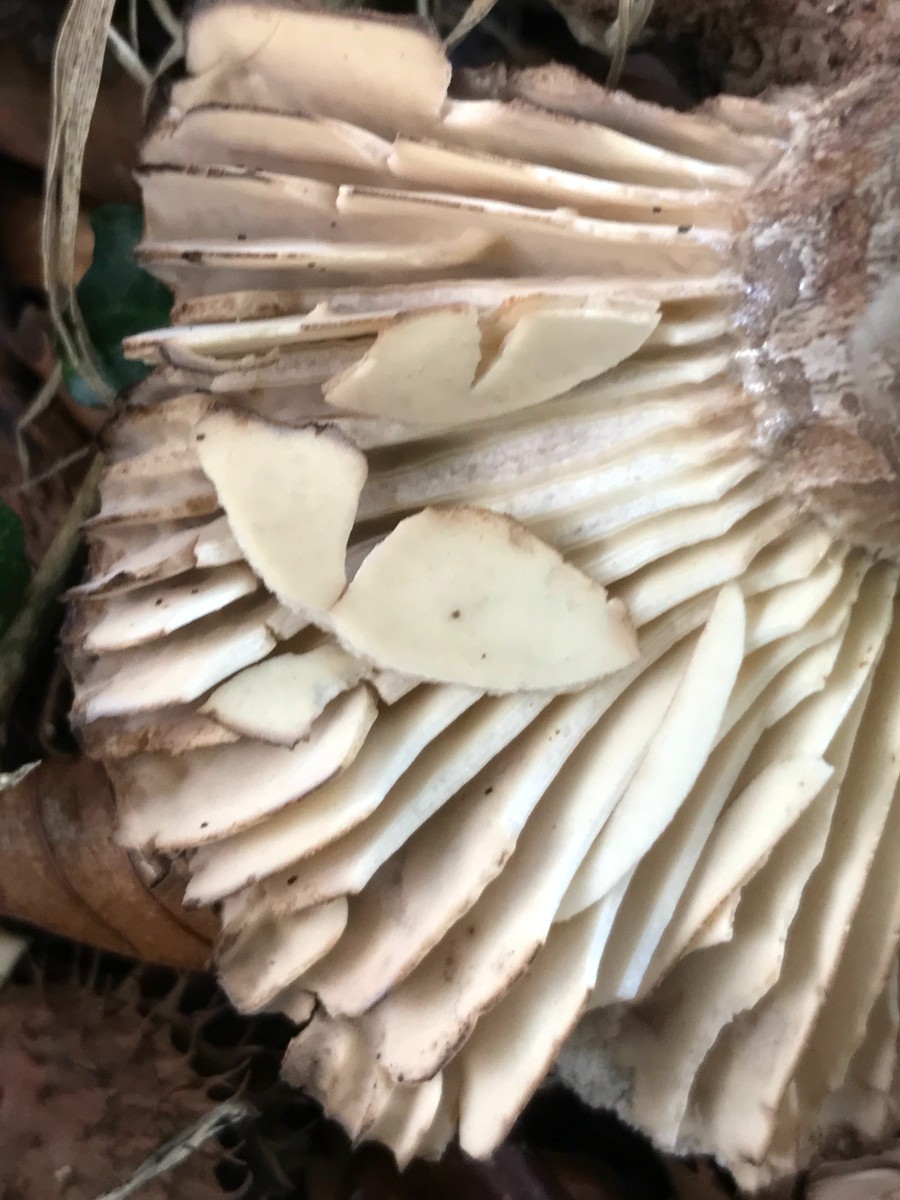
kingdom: Fungi
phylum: Basidiomycota
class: Agaricomycetes
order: Russulales
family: Russulaceae
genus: Russula
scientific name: Russula adusta
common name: sværtende skørhat
